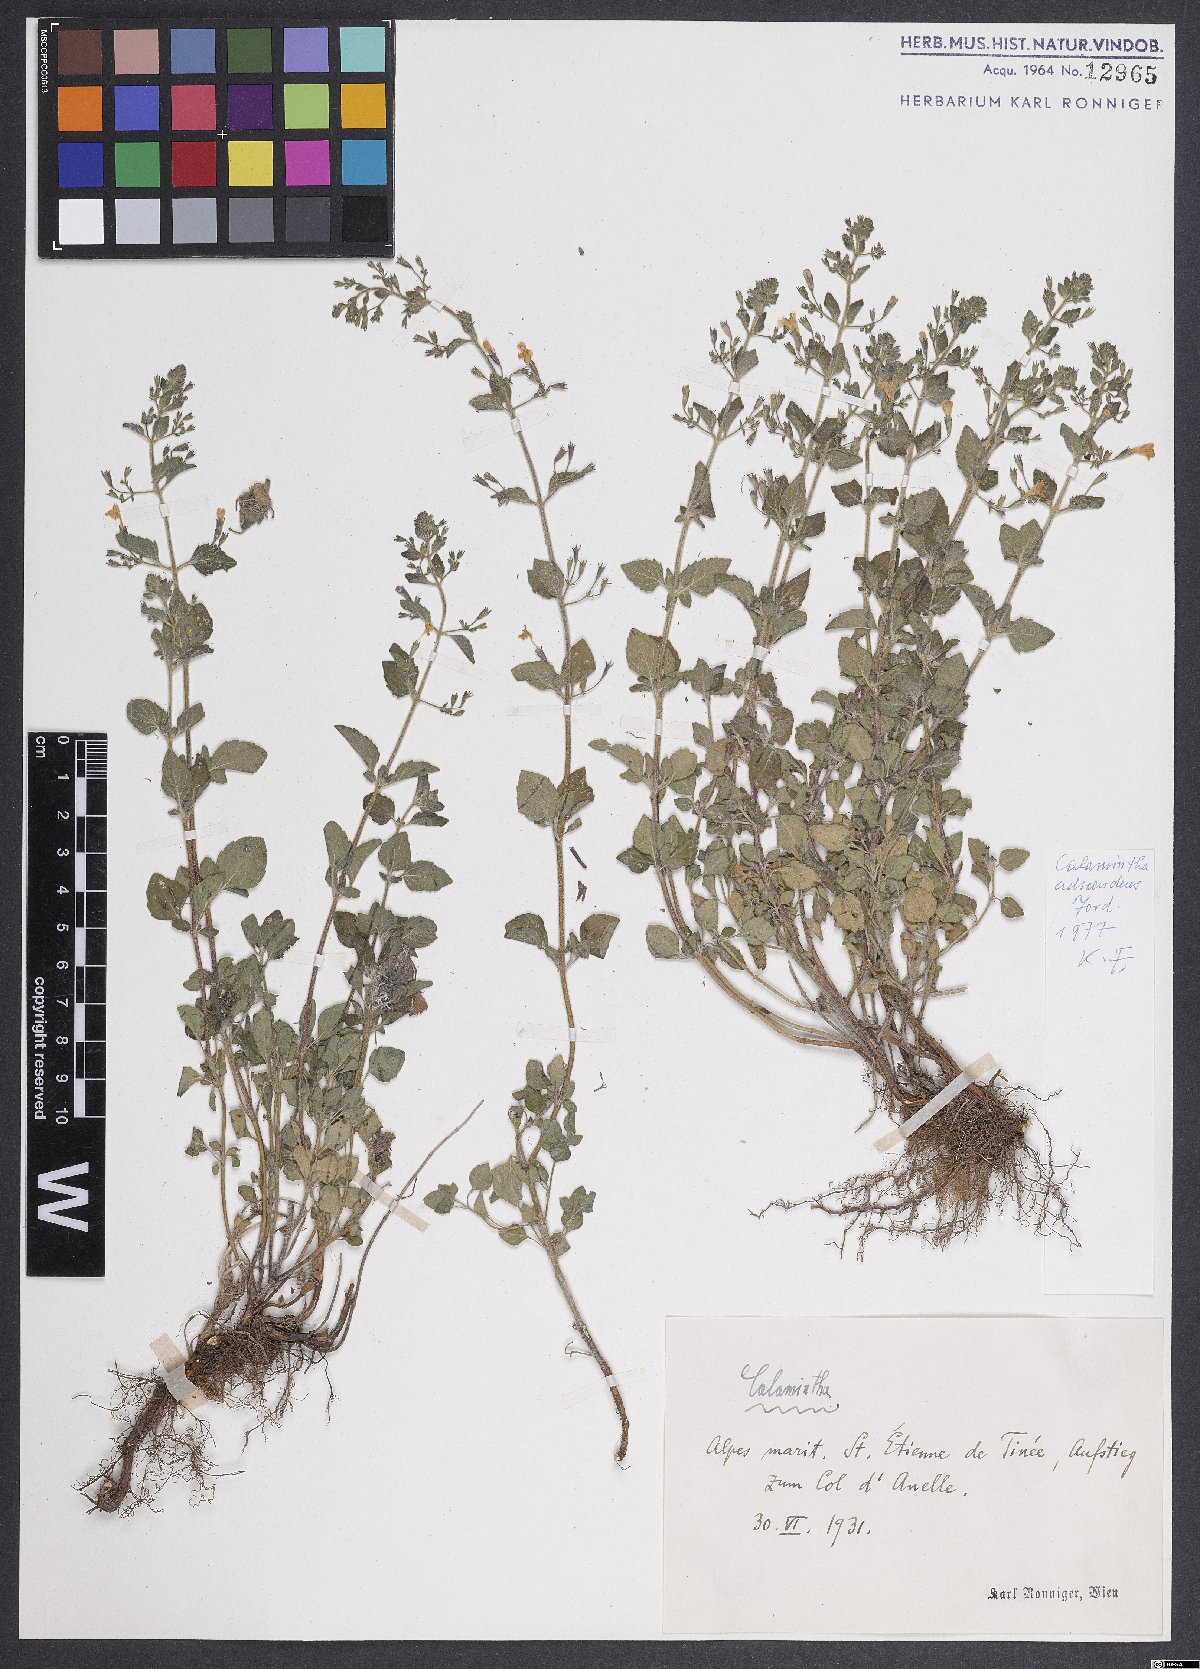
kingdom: Plantae
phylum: Tracheophyta
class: Magnoliopsida
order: Lamiales
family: Lamiaceae
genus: Clinopodium
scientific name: Clinopodium menthifolium
